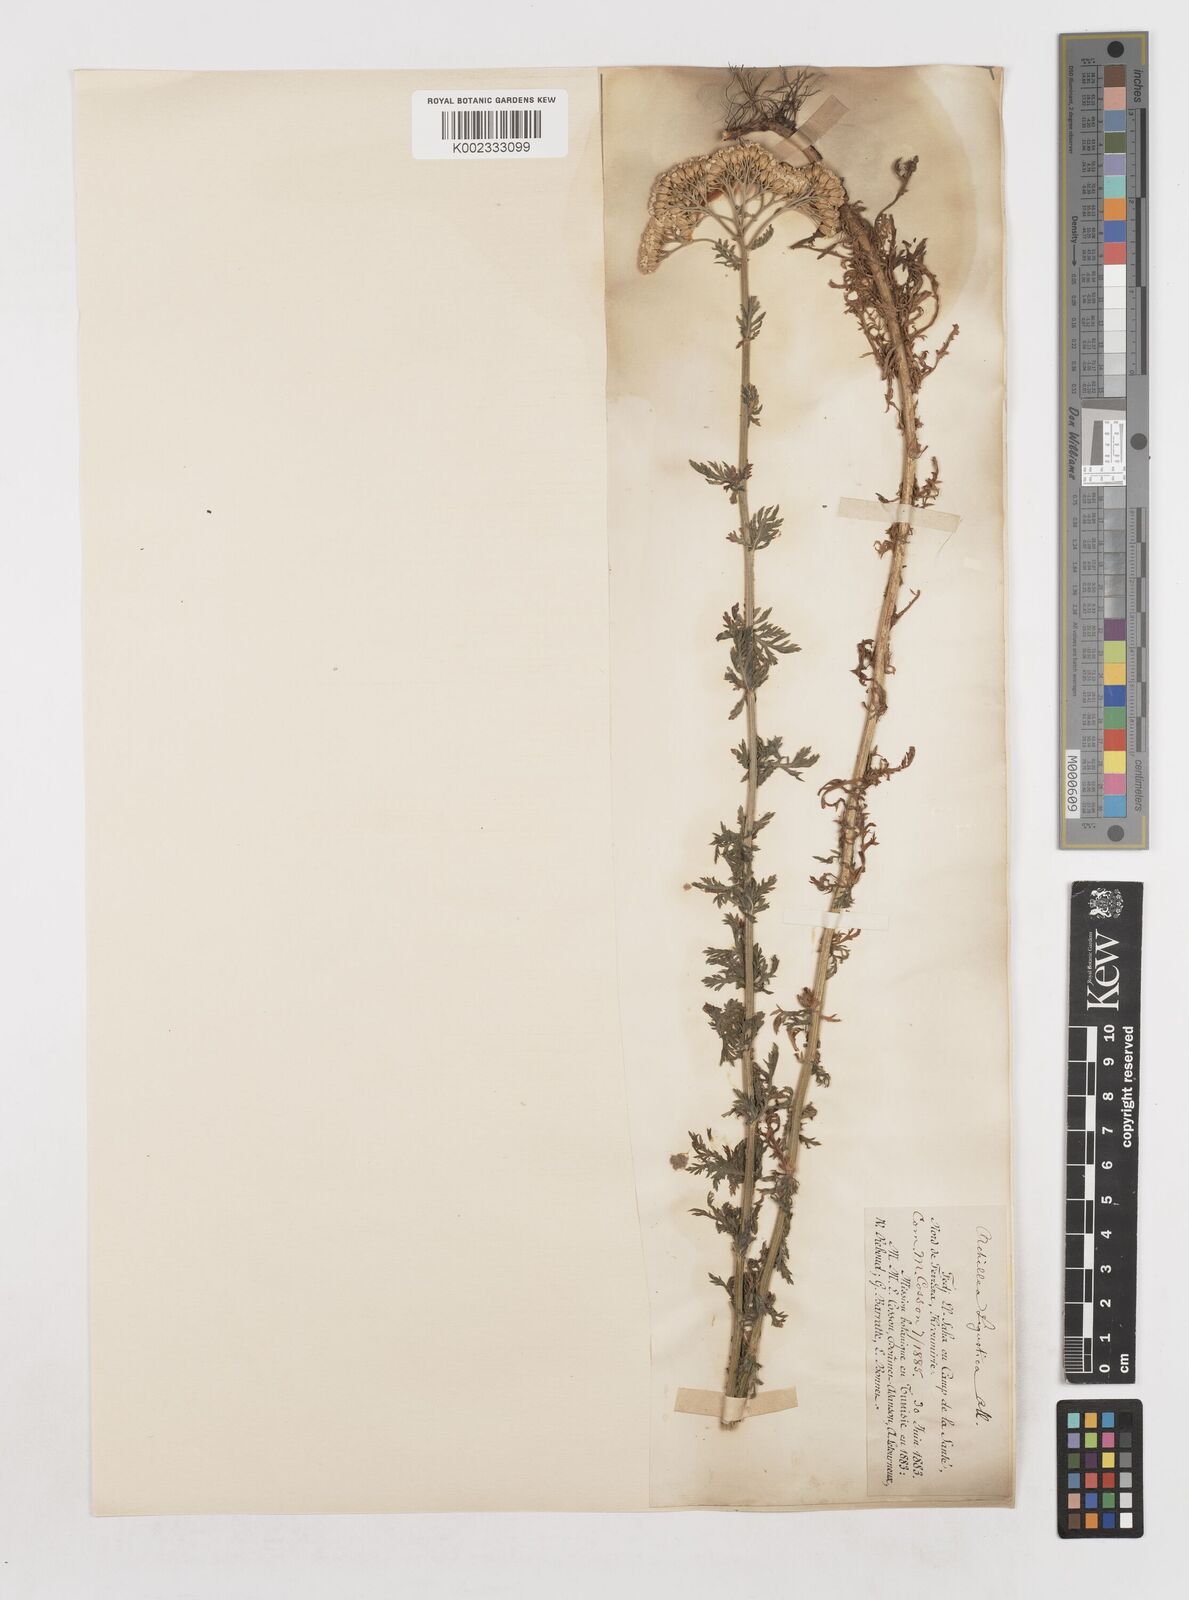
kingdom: Plantae
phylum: Tracheophyta
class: Magnoliopsida
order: Asterales
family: Asteraceae
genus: Achillea
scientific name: Achillea ligustica
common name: Southern yarrow
